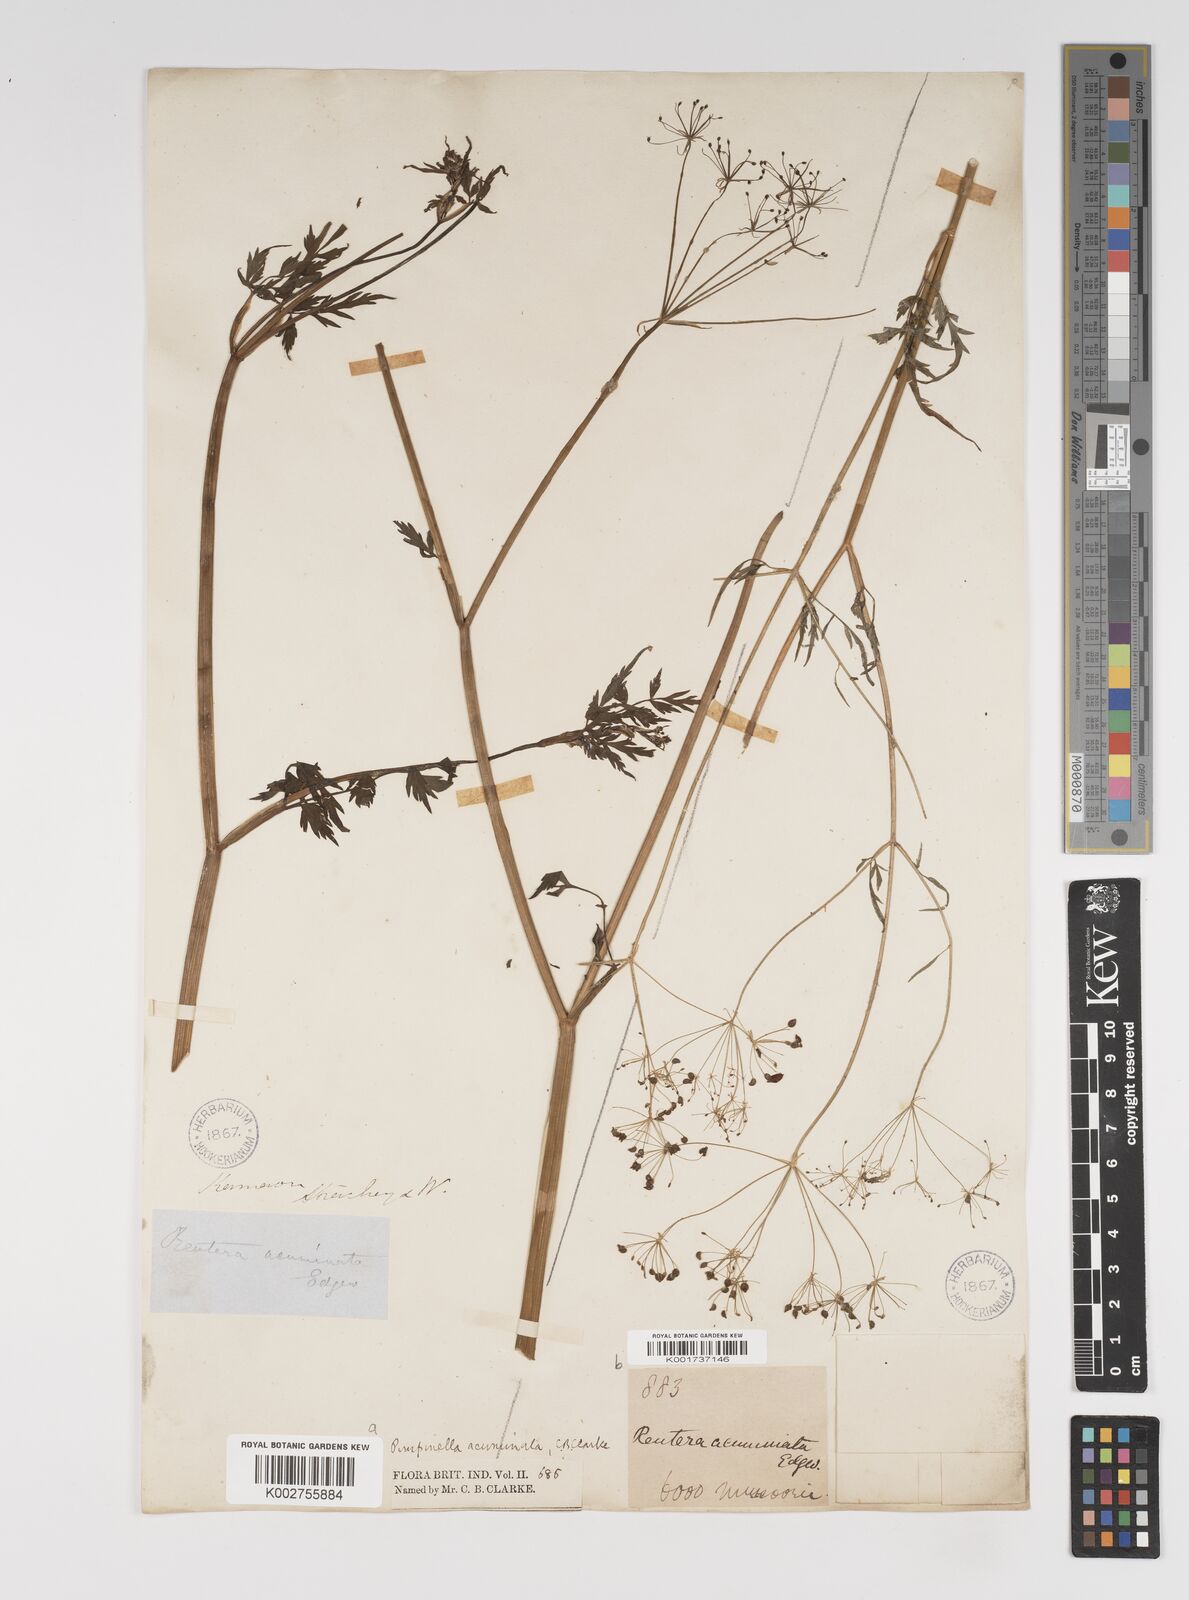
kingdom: Plantae
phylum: Tracheophyta
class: Magnoliopsida
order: Apiales
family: Apiaceae
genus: Pimpinella
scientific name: Pimpinella acuminata
